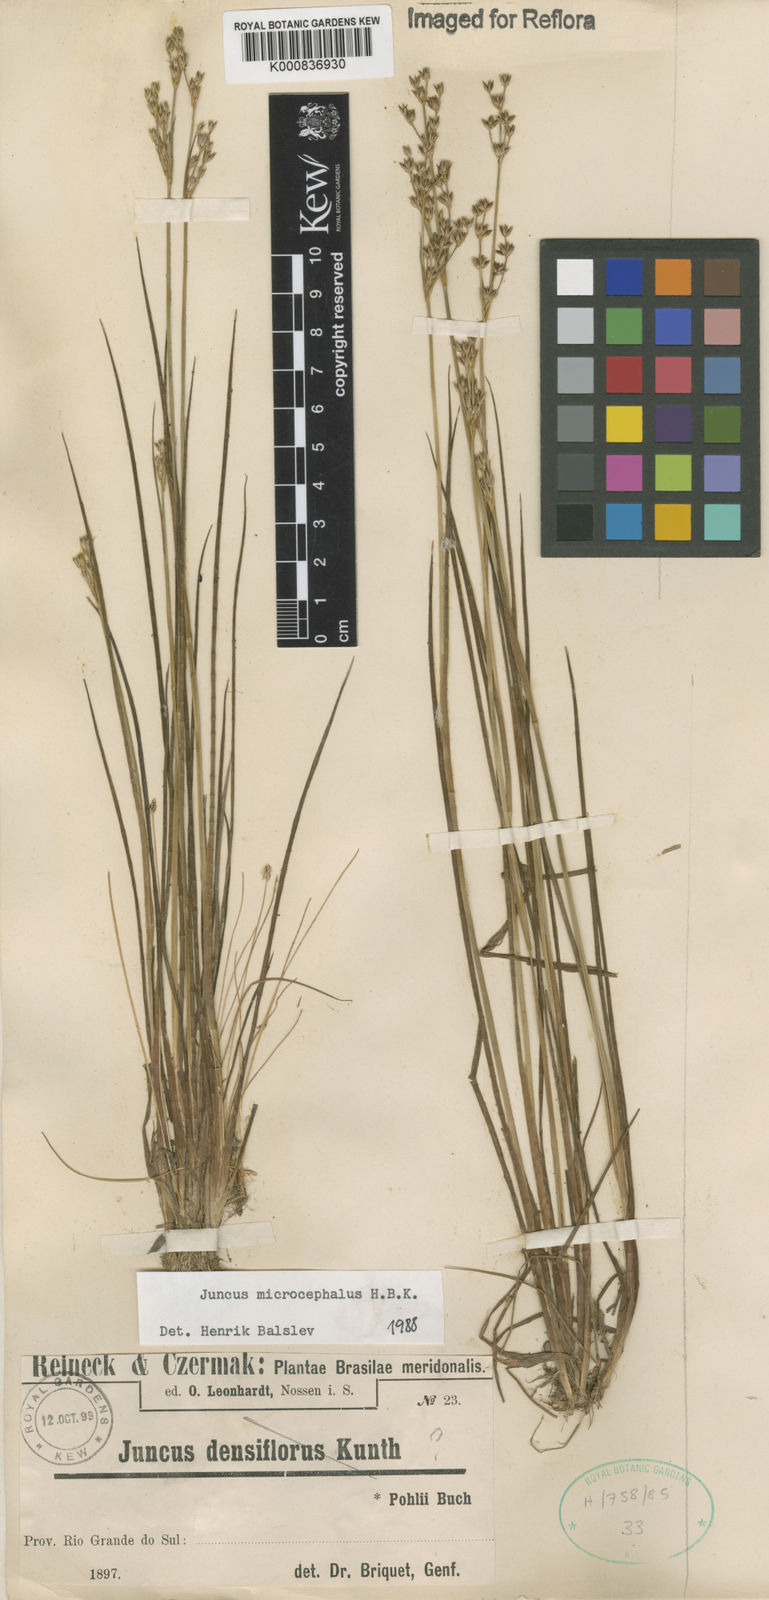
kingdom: Plantae
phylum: Tracheophyta
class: Liliopsida
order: Poales
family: Juncaceae
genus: Juncus
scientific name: Juncus microcephalus
